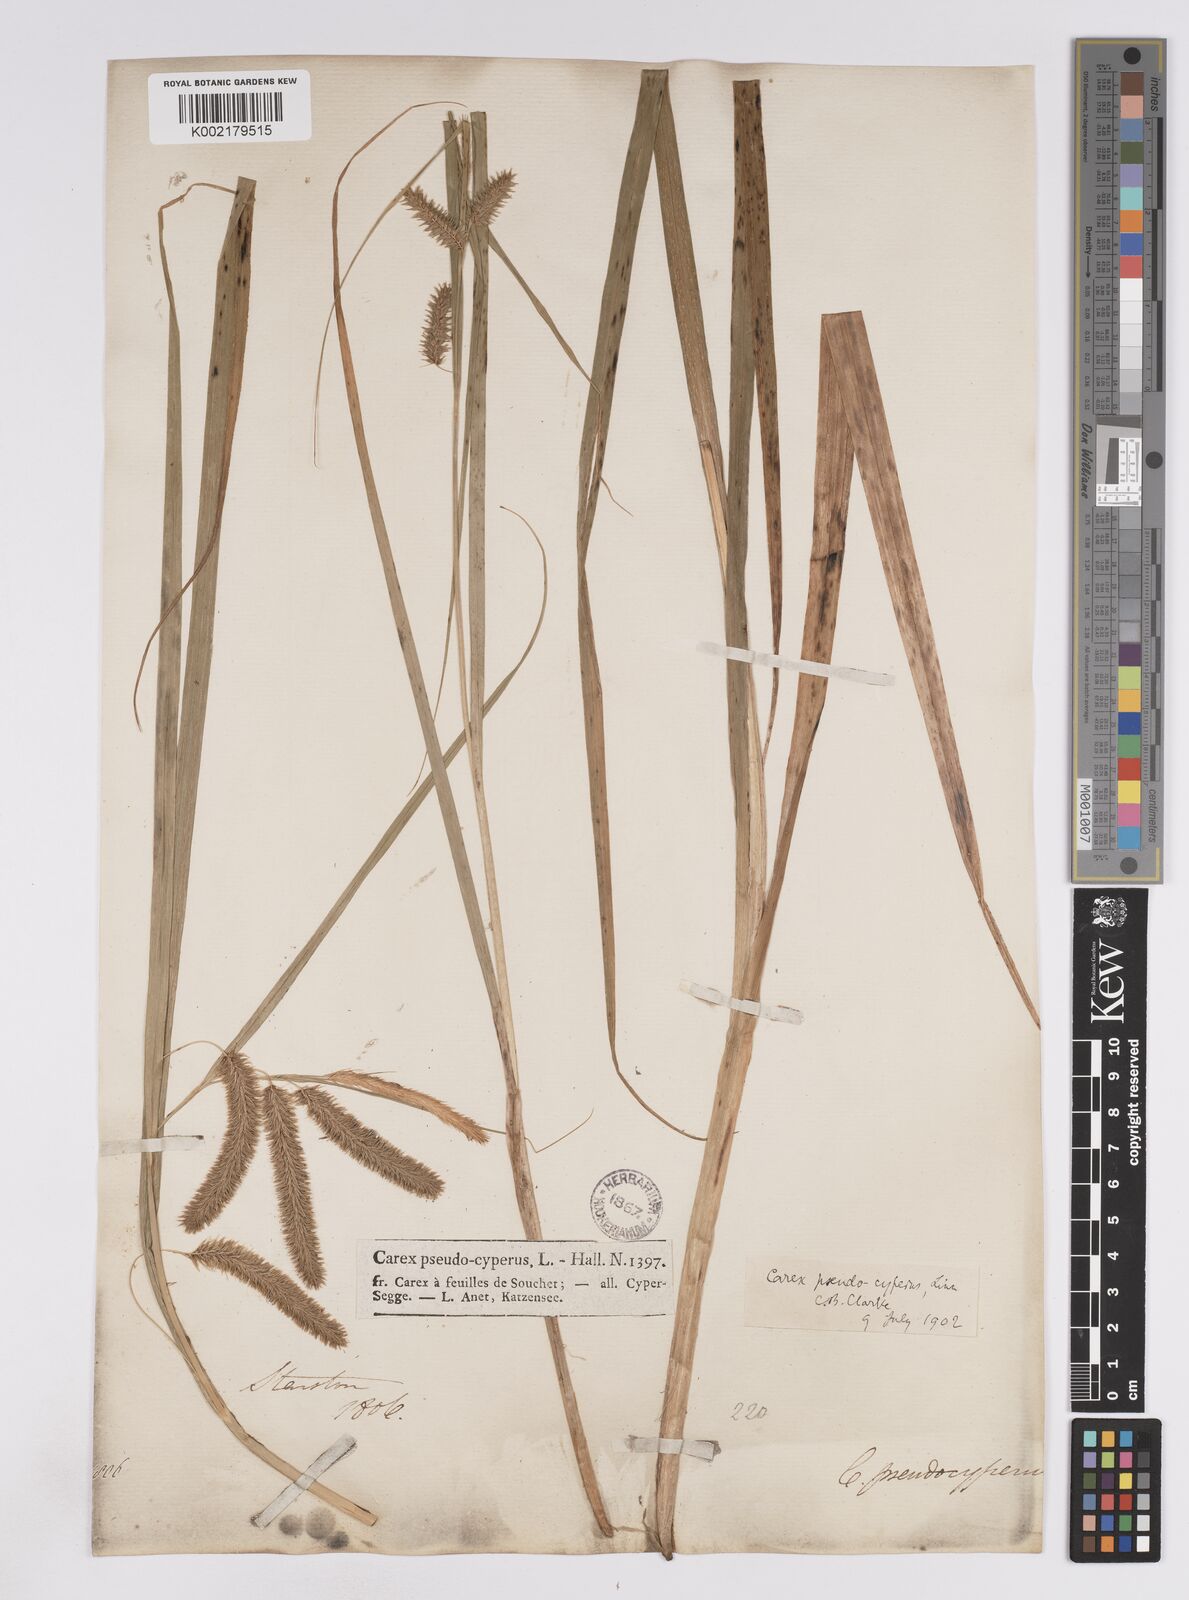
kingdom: Plantae
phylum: Tracheophyta
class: Liliopsida
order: Poales
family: Cyperaceae
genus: Carex
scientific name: Carex pseudocyperus
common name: Cyperus sedge
